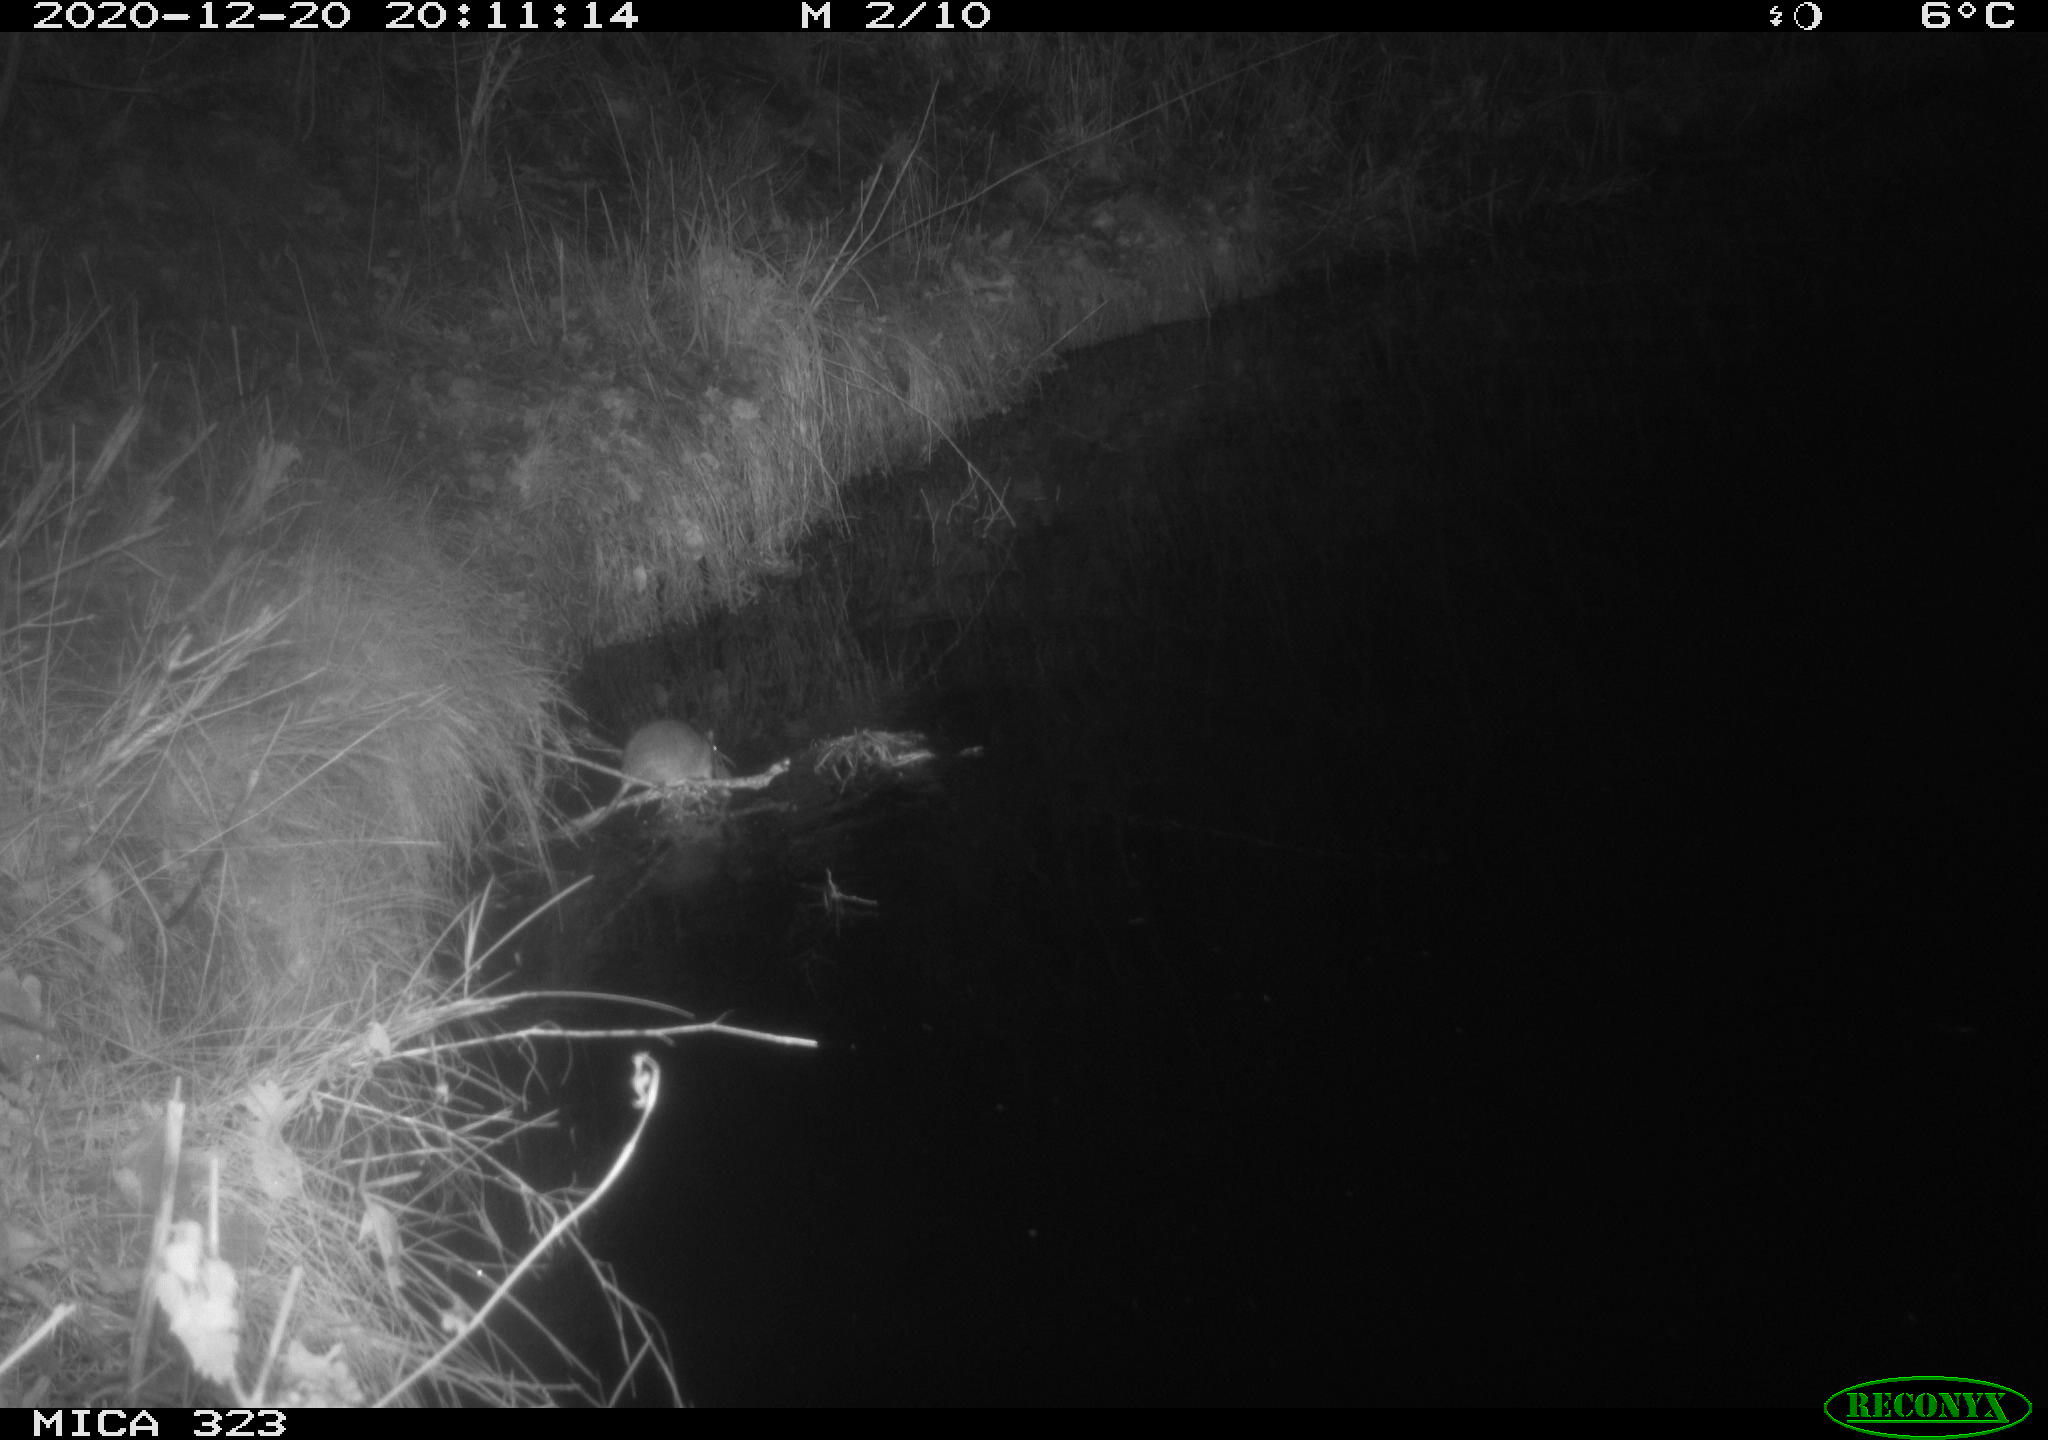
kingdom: Animalia
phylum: Chordata
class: Mammalia
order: Rodentia
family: Muridae
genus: Rattus
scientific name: Rattus norvegicus
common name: Brown rat
